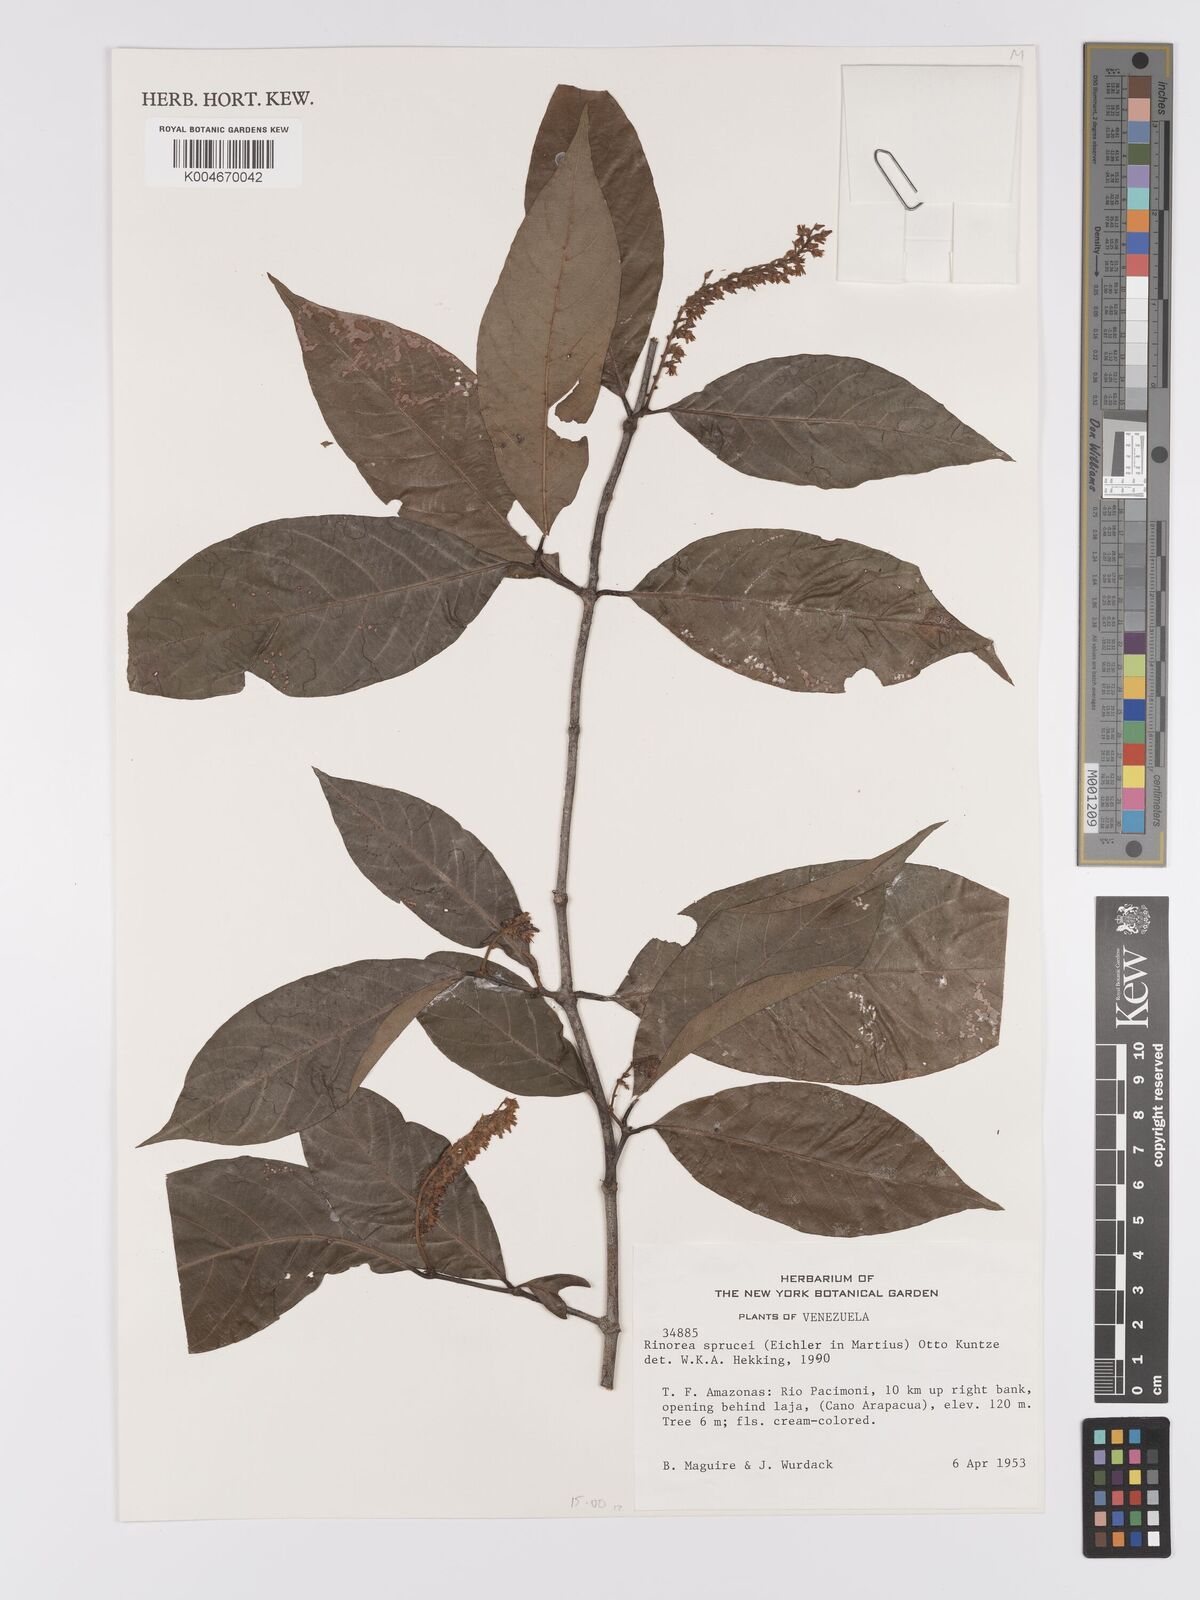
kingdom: Plantae
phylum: Tracheophyta
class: Magnoliopsida
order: Malpighiales
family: Violaceae
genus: Rinorea
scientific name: Rinorea sprucei
